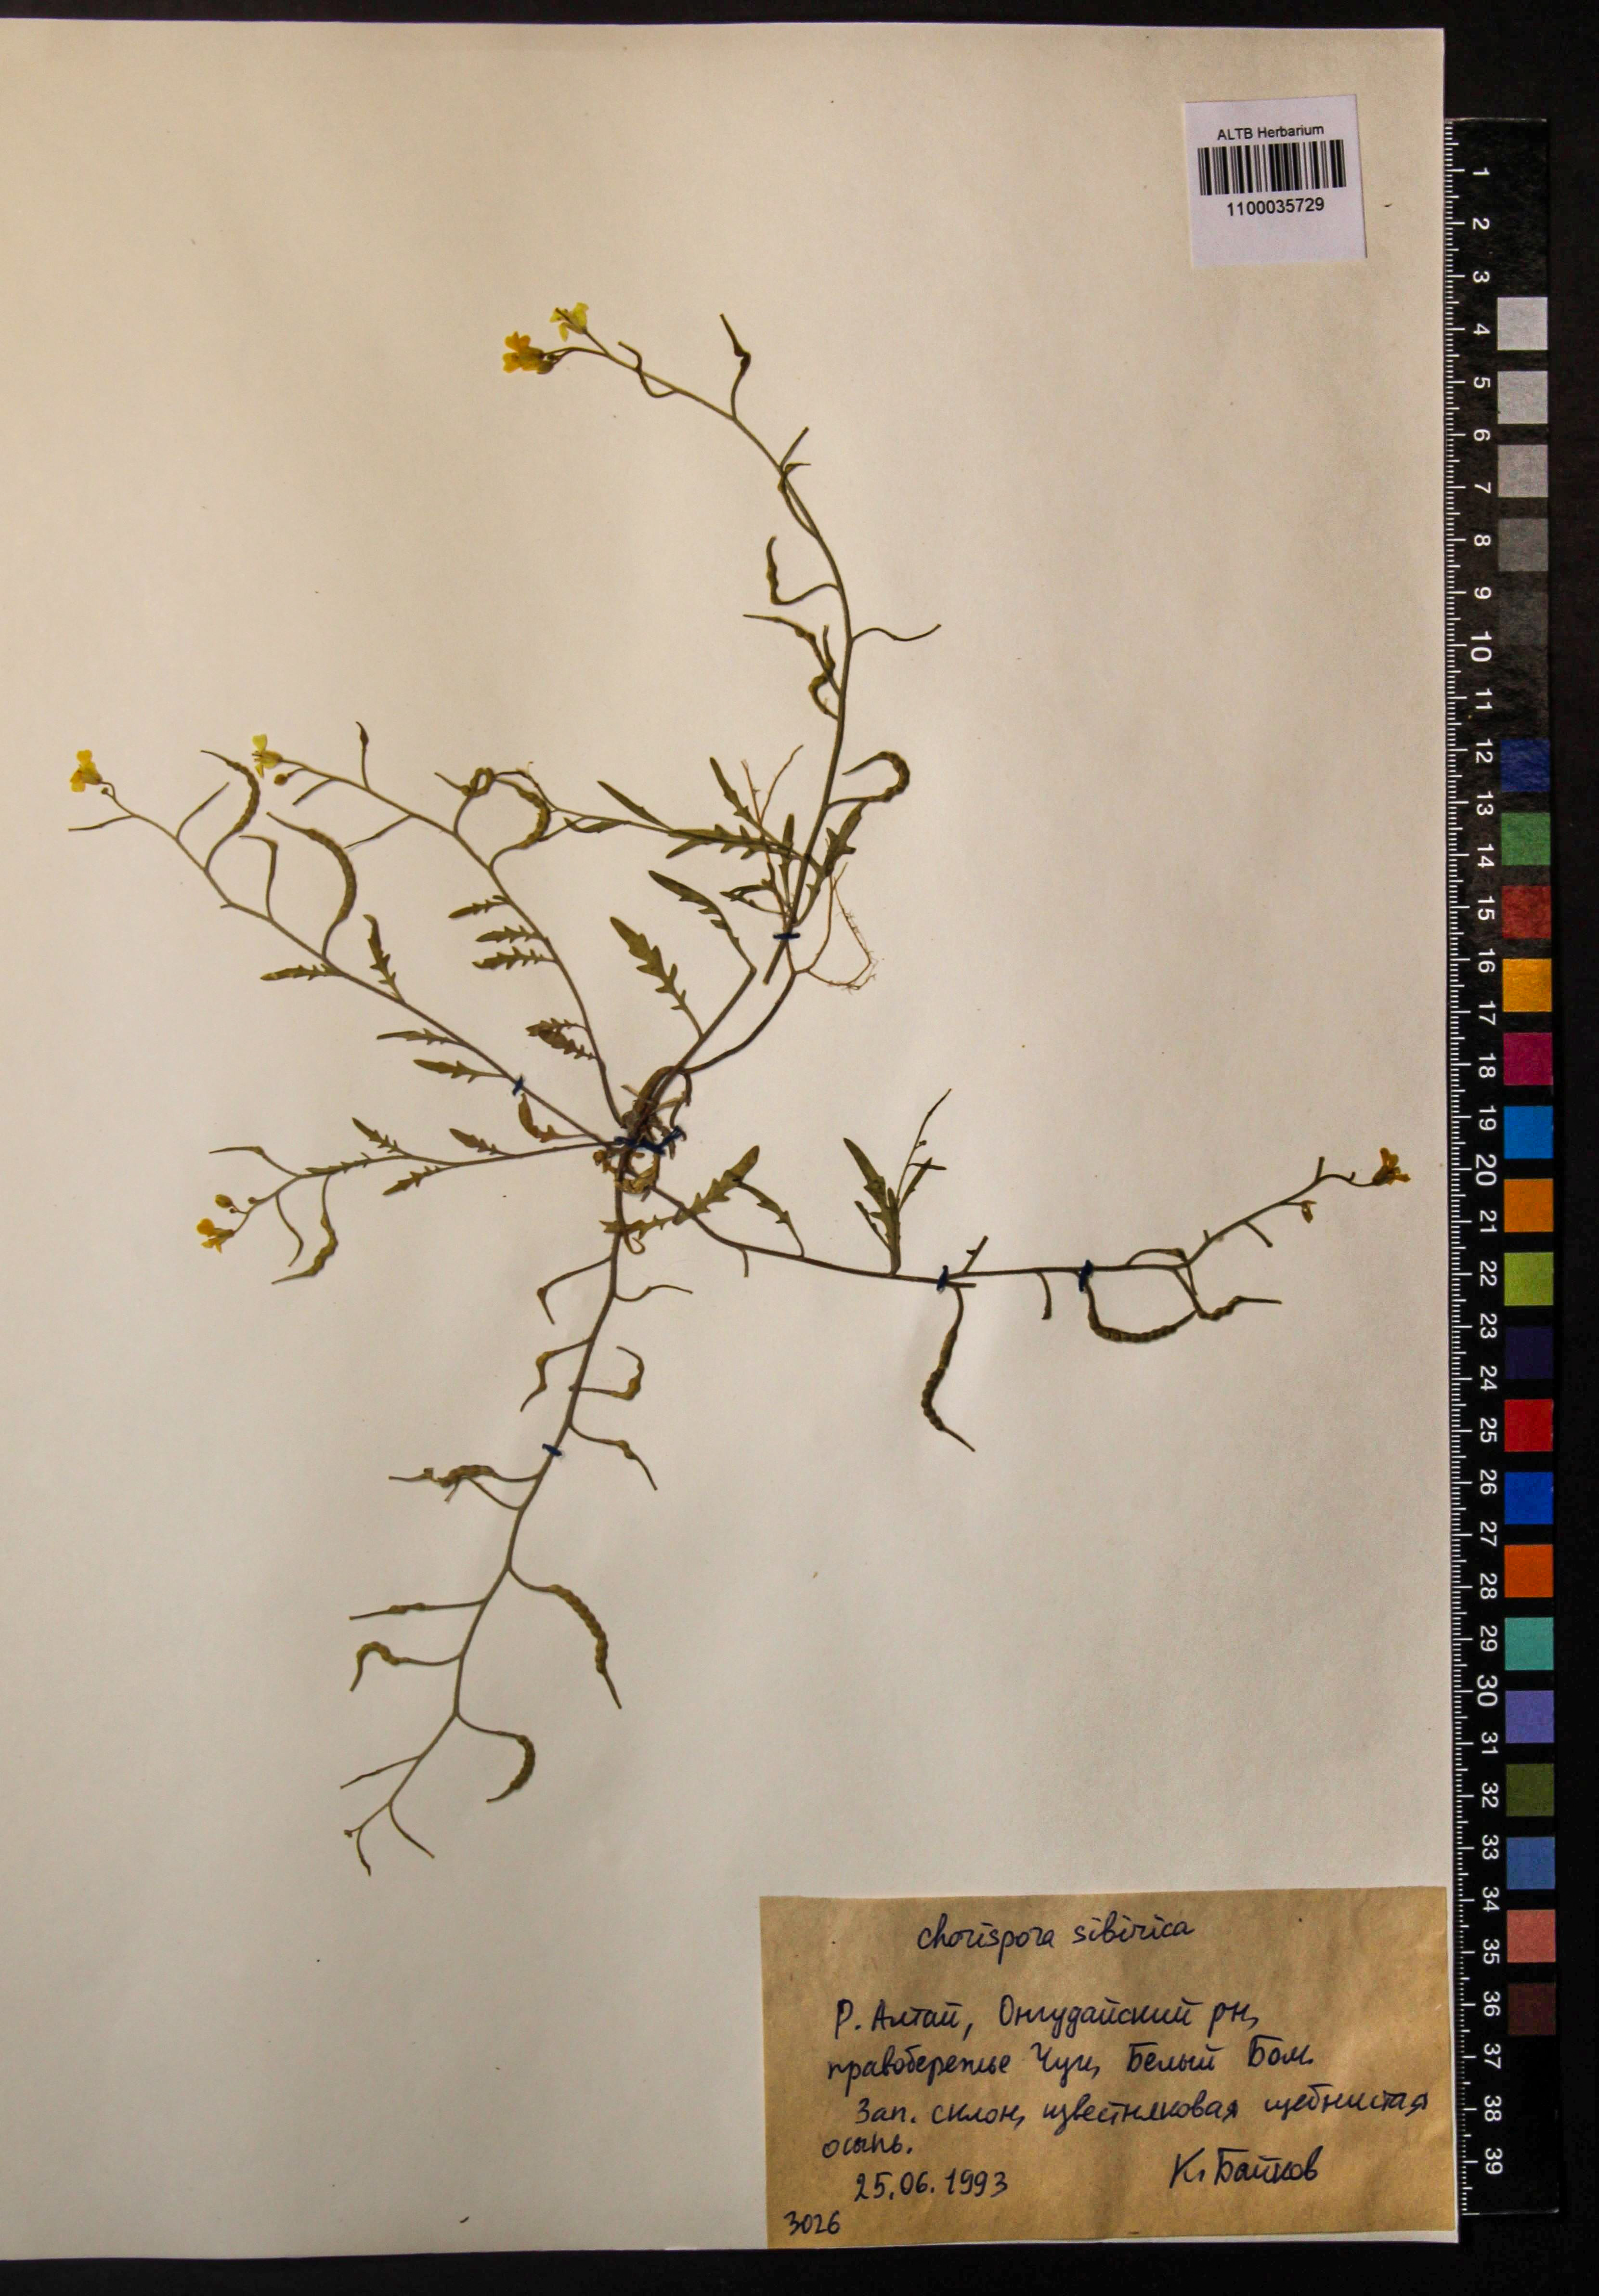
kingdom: Plantae
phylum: Tracheophyta
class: Magnoliopsida
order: Brassicales
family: Brassicaceae
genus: Chorispora
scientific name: Chorispora sibirica
